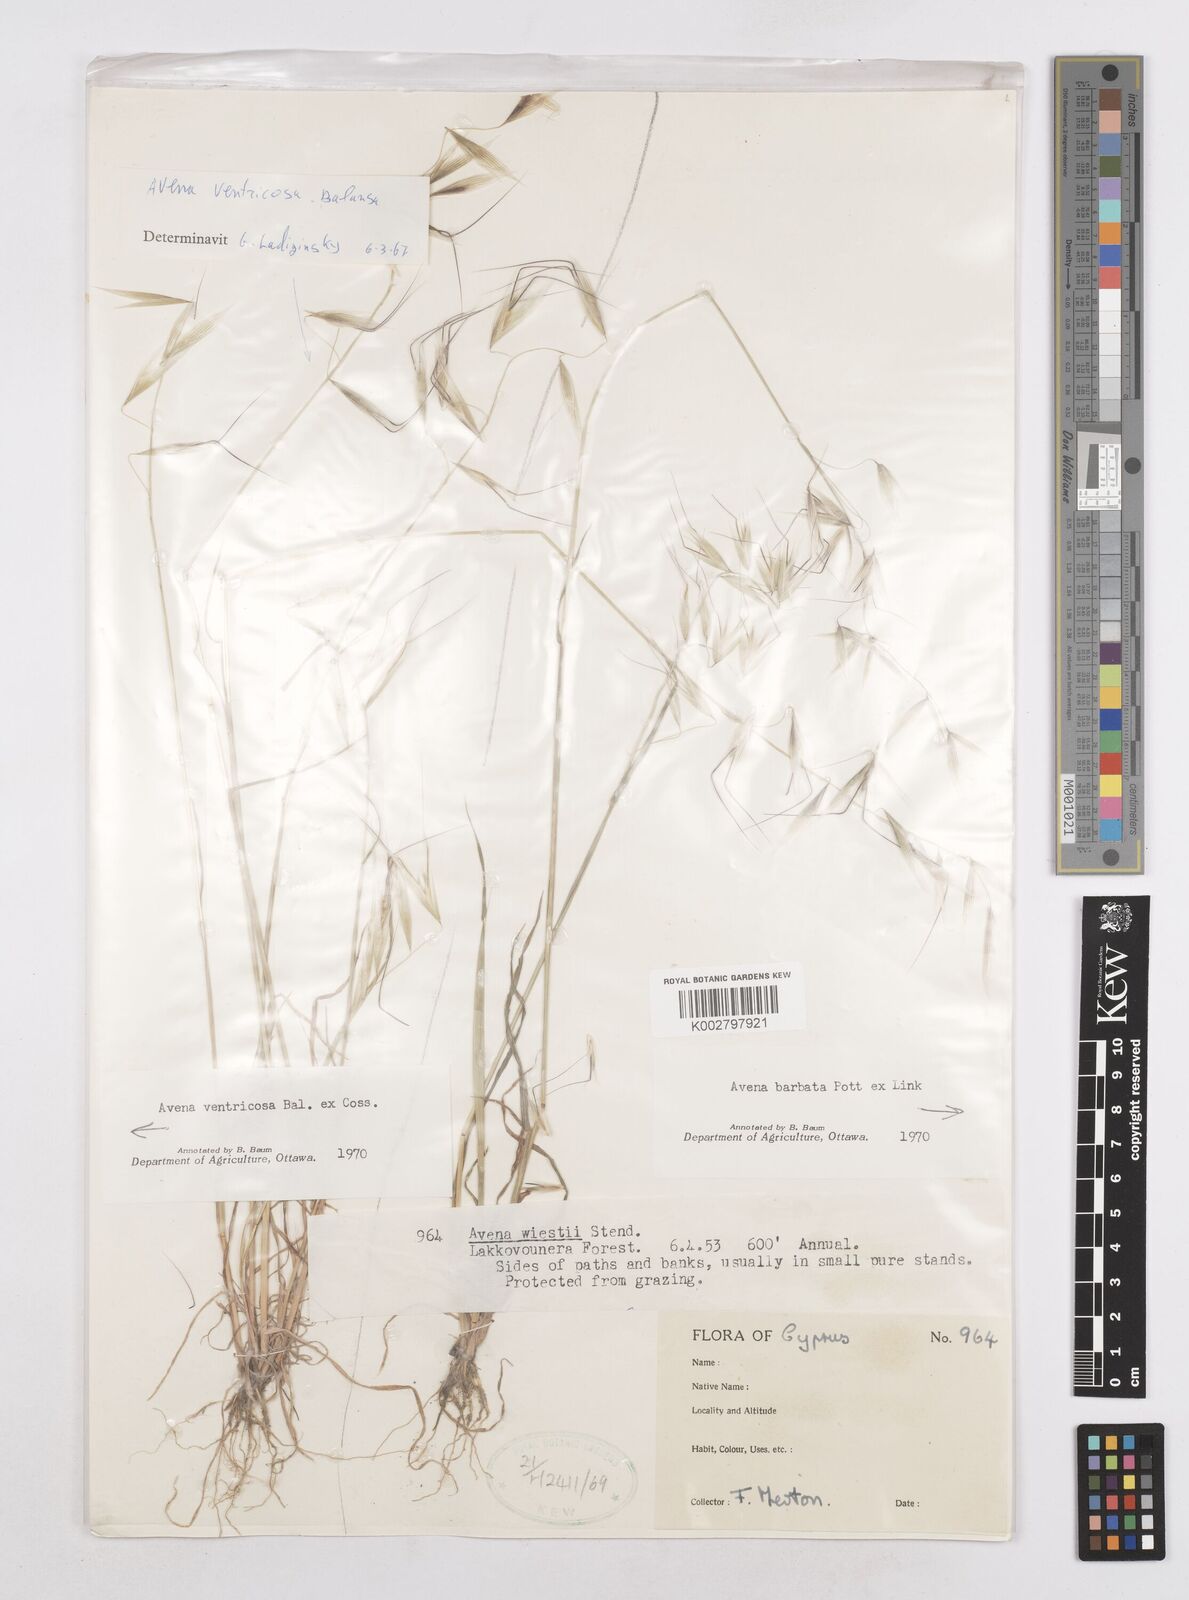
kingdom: Plantae
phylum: Tracheophyta
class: Liliopsida
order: Poales
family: Poaceae
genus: Avena
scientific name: Avena ventricosa
